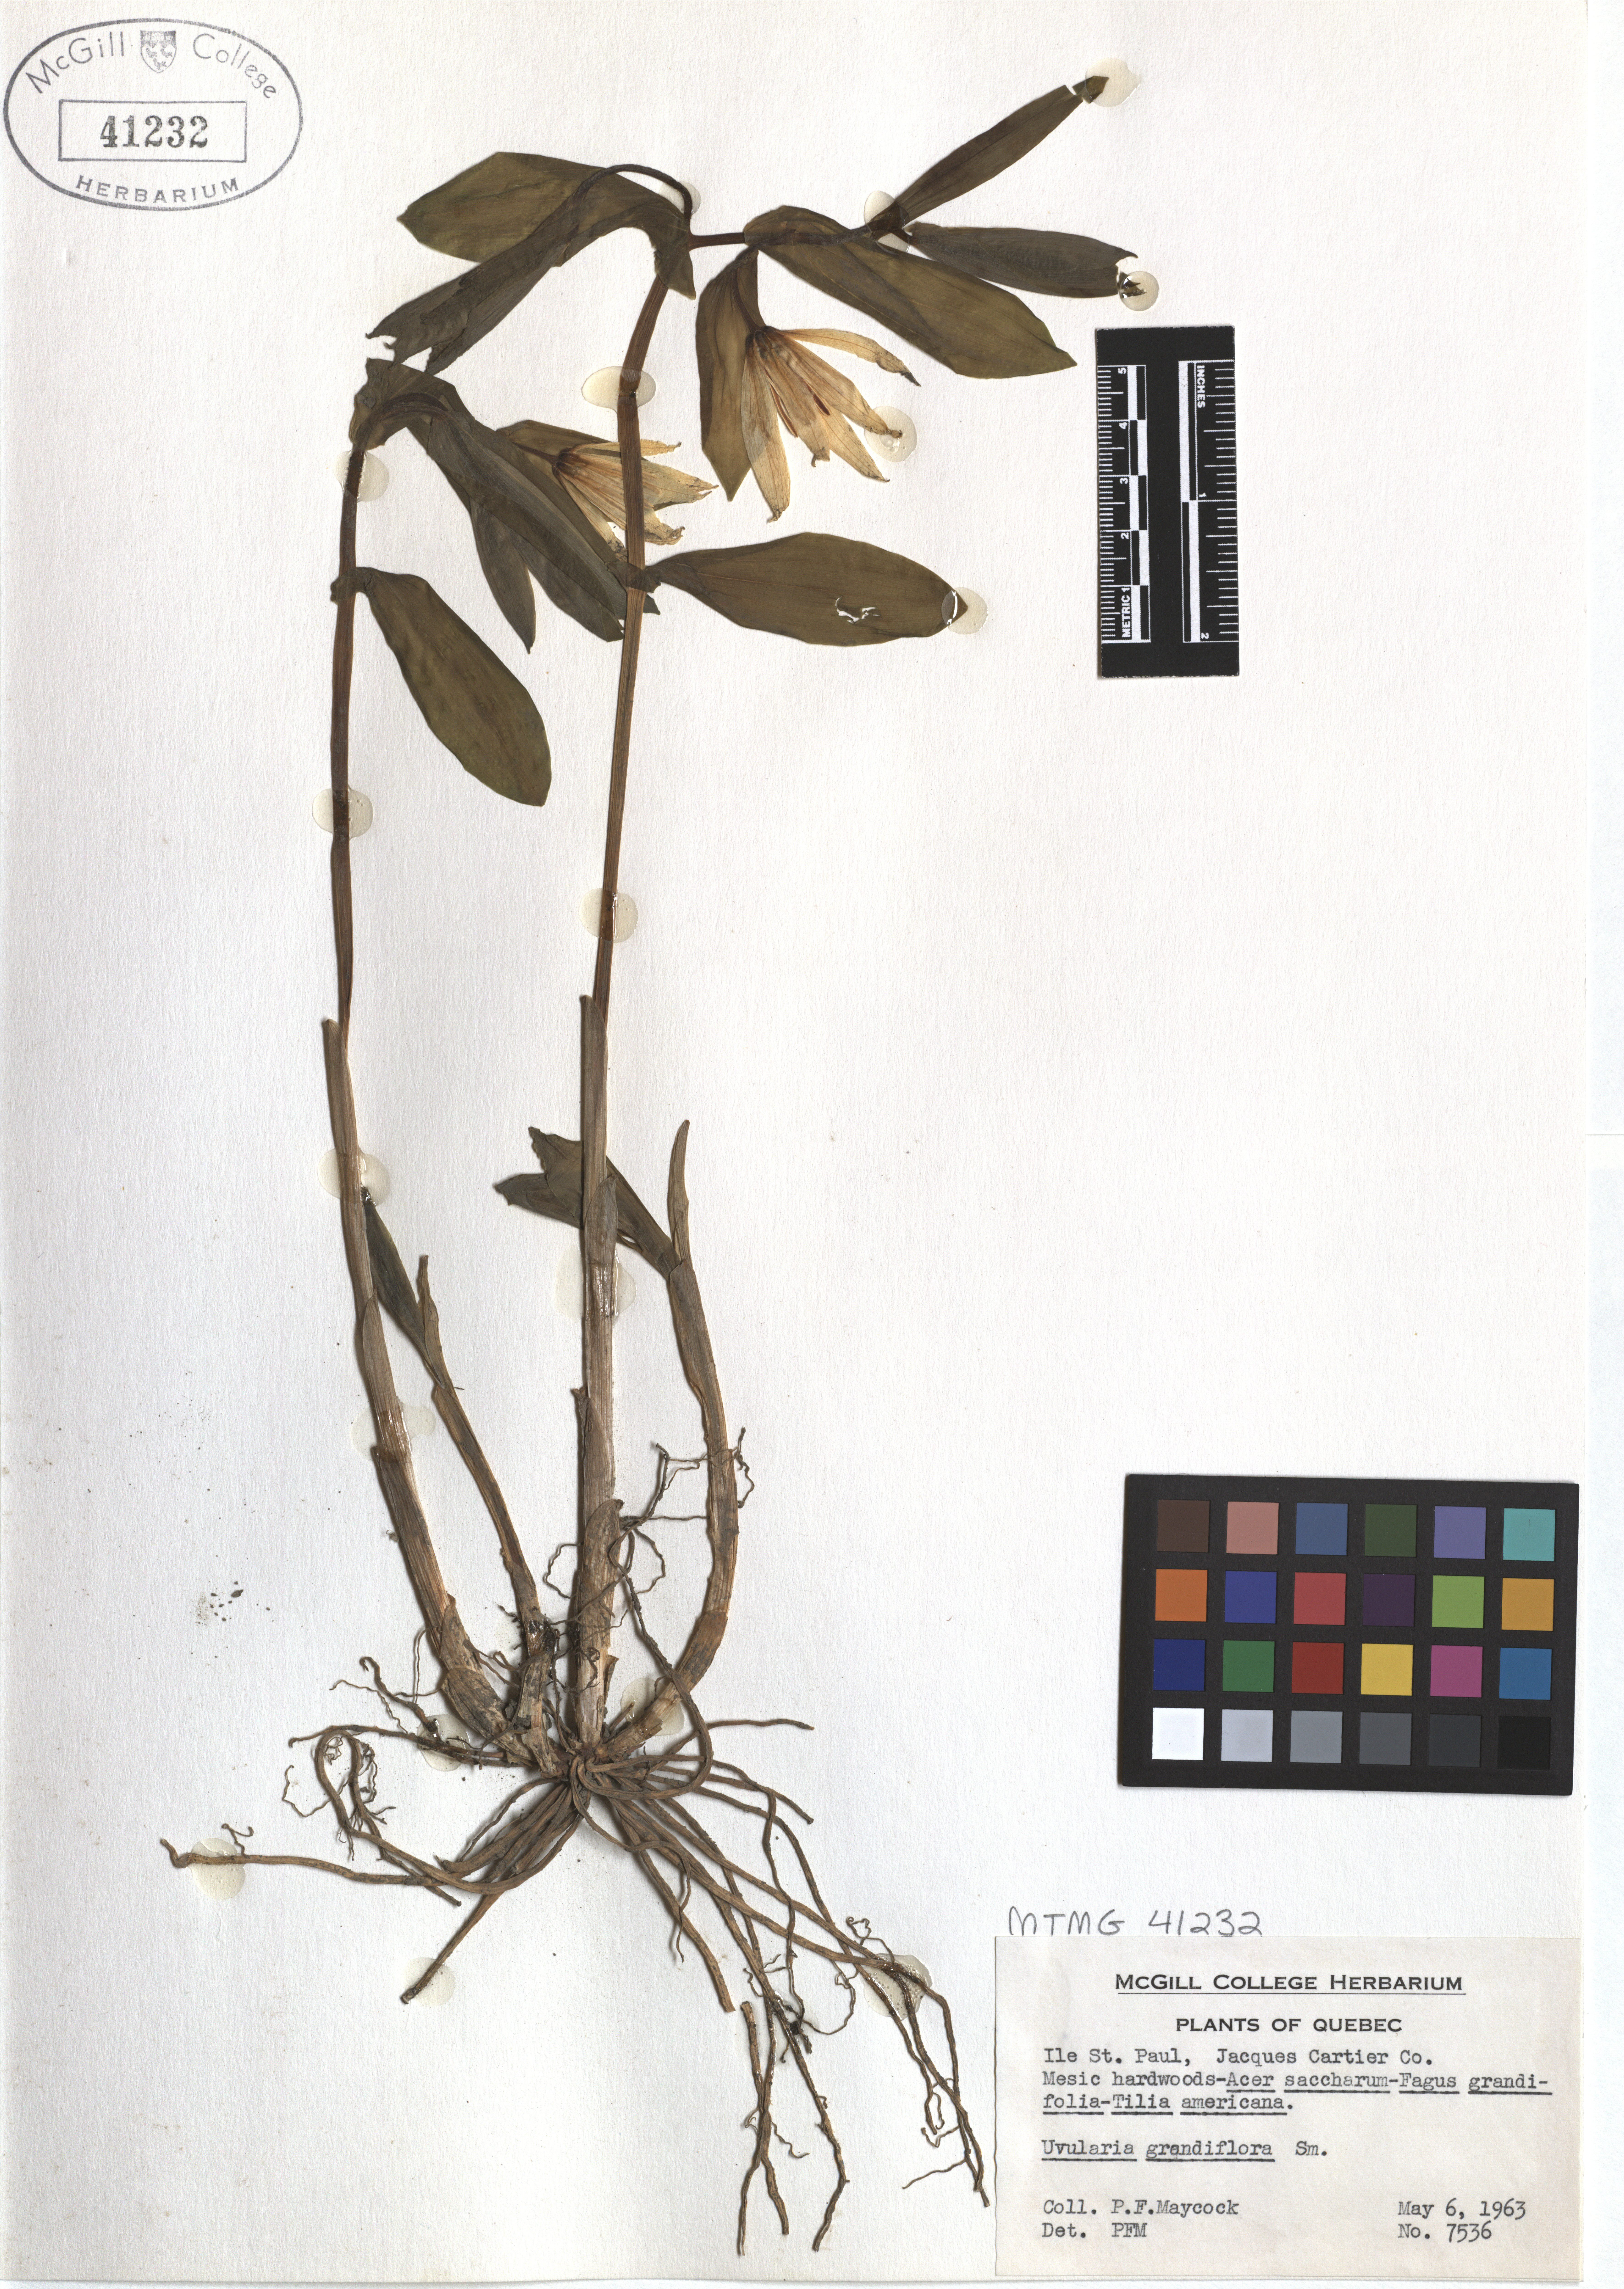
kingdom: Plantae
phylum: Tracheophyta
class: Liliopsida
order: Liliales
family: Colchicaceae
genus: Uvularia
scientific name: Uvularia grandiflora
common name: Bellwort
